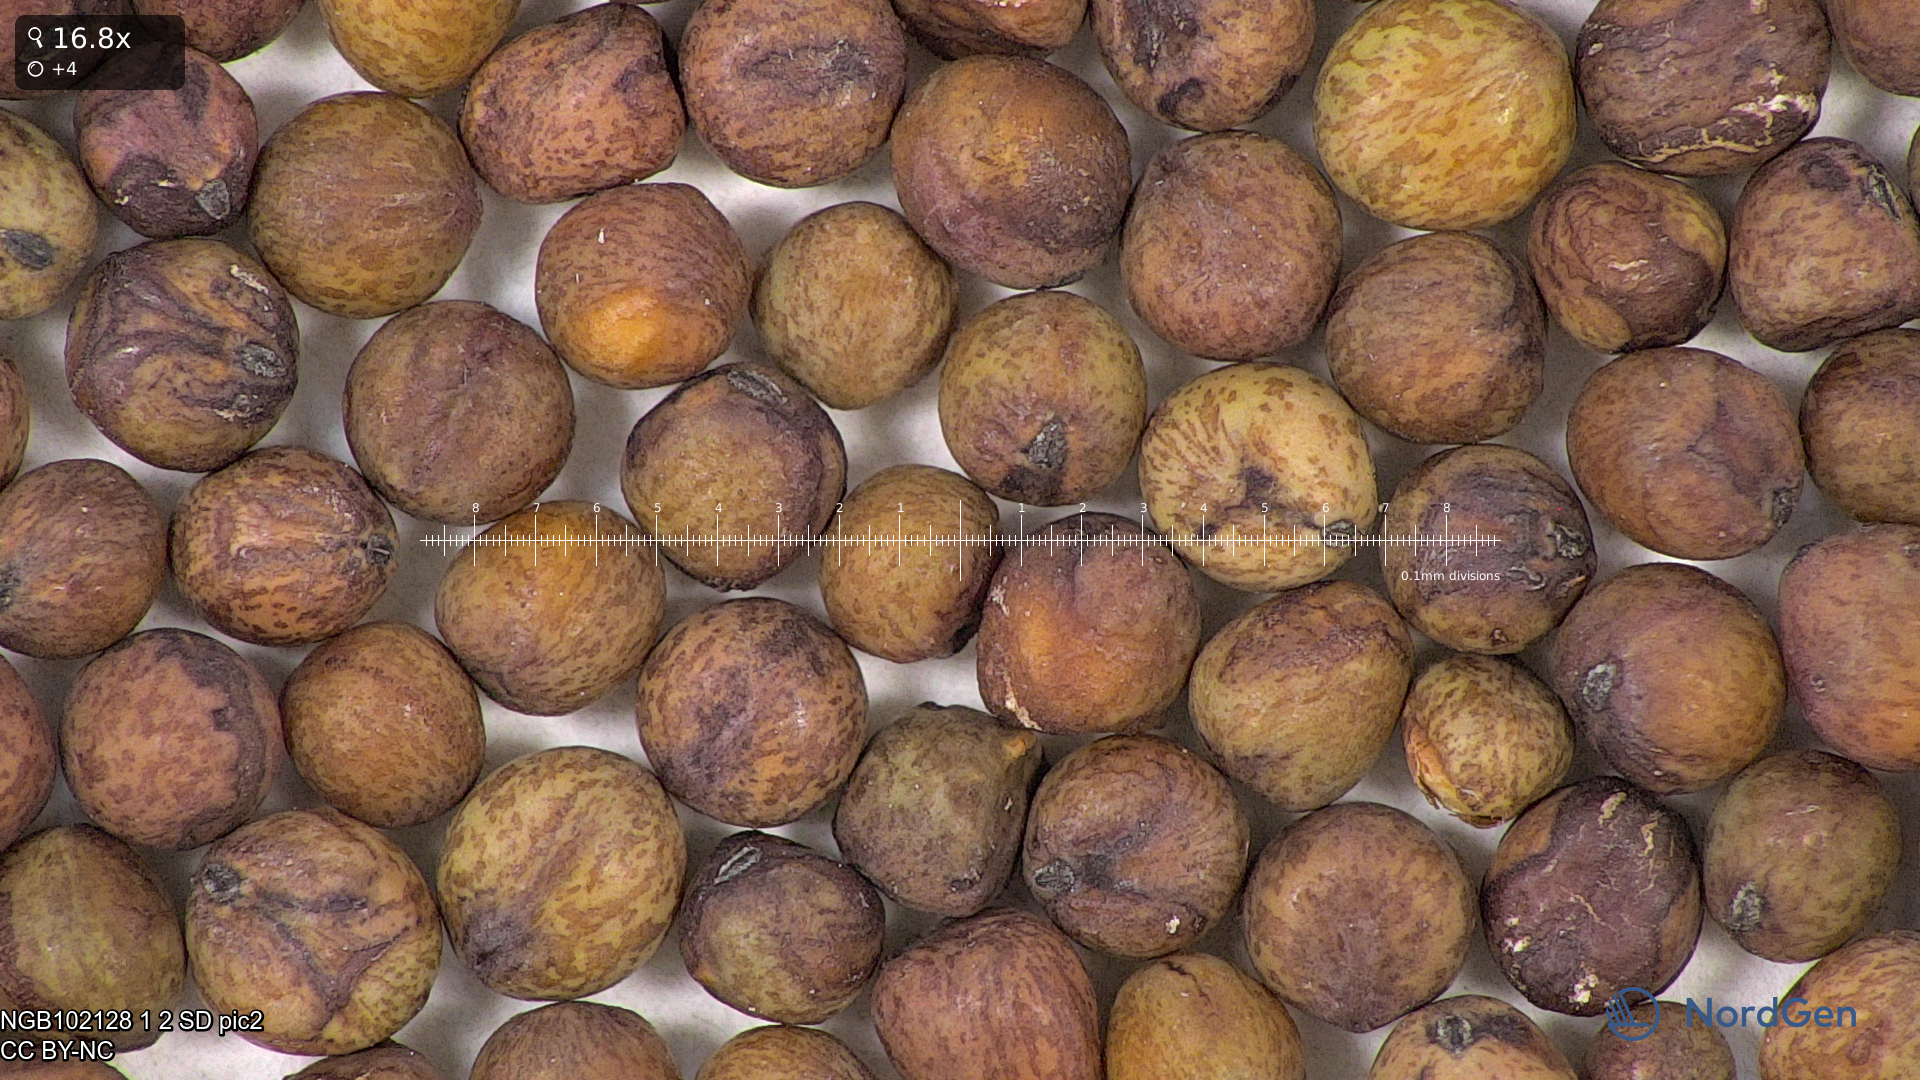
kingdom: Plantae
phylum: Tracheophyta
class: Magnoliopsida
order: Fabales
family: Fabaceae
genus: Lathyrus
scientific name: Lathyrus oleraceus
